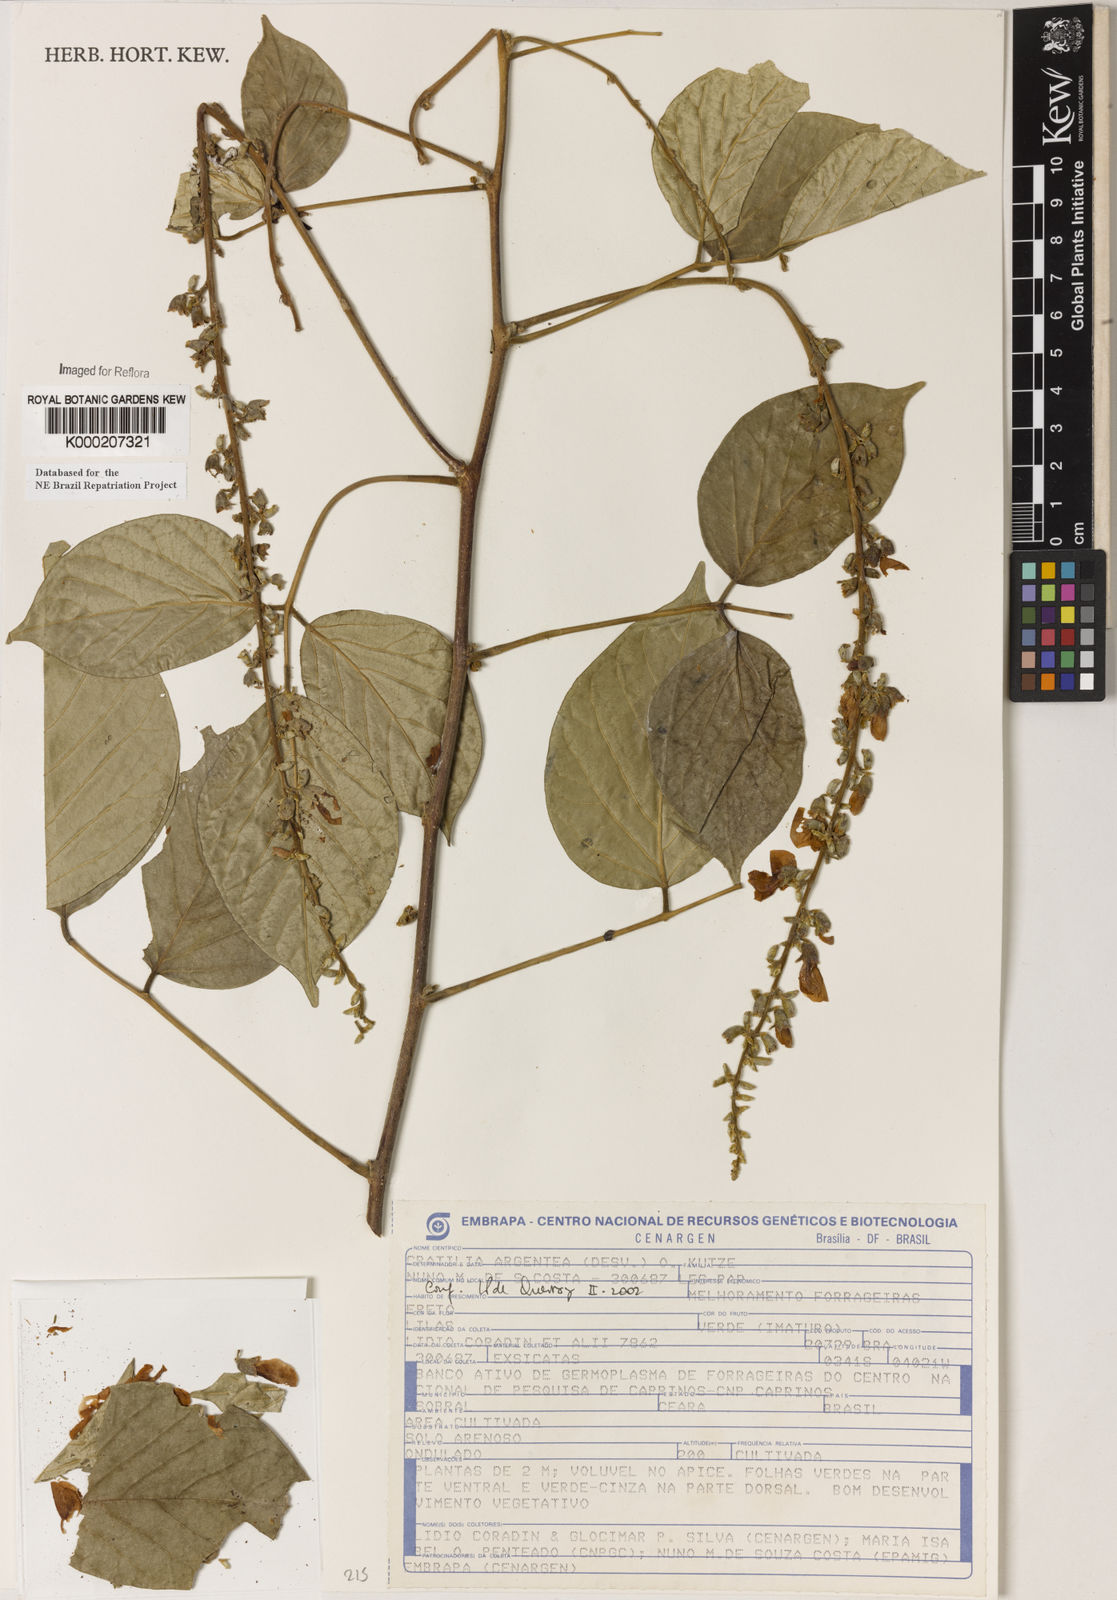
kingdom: Plantae
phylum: Tracheophyta
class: Magnoliopsida
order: Fabales
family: Fabaceae
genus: Cratylia
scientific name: Cratylia argentea
